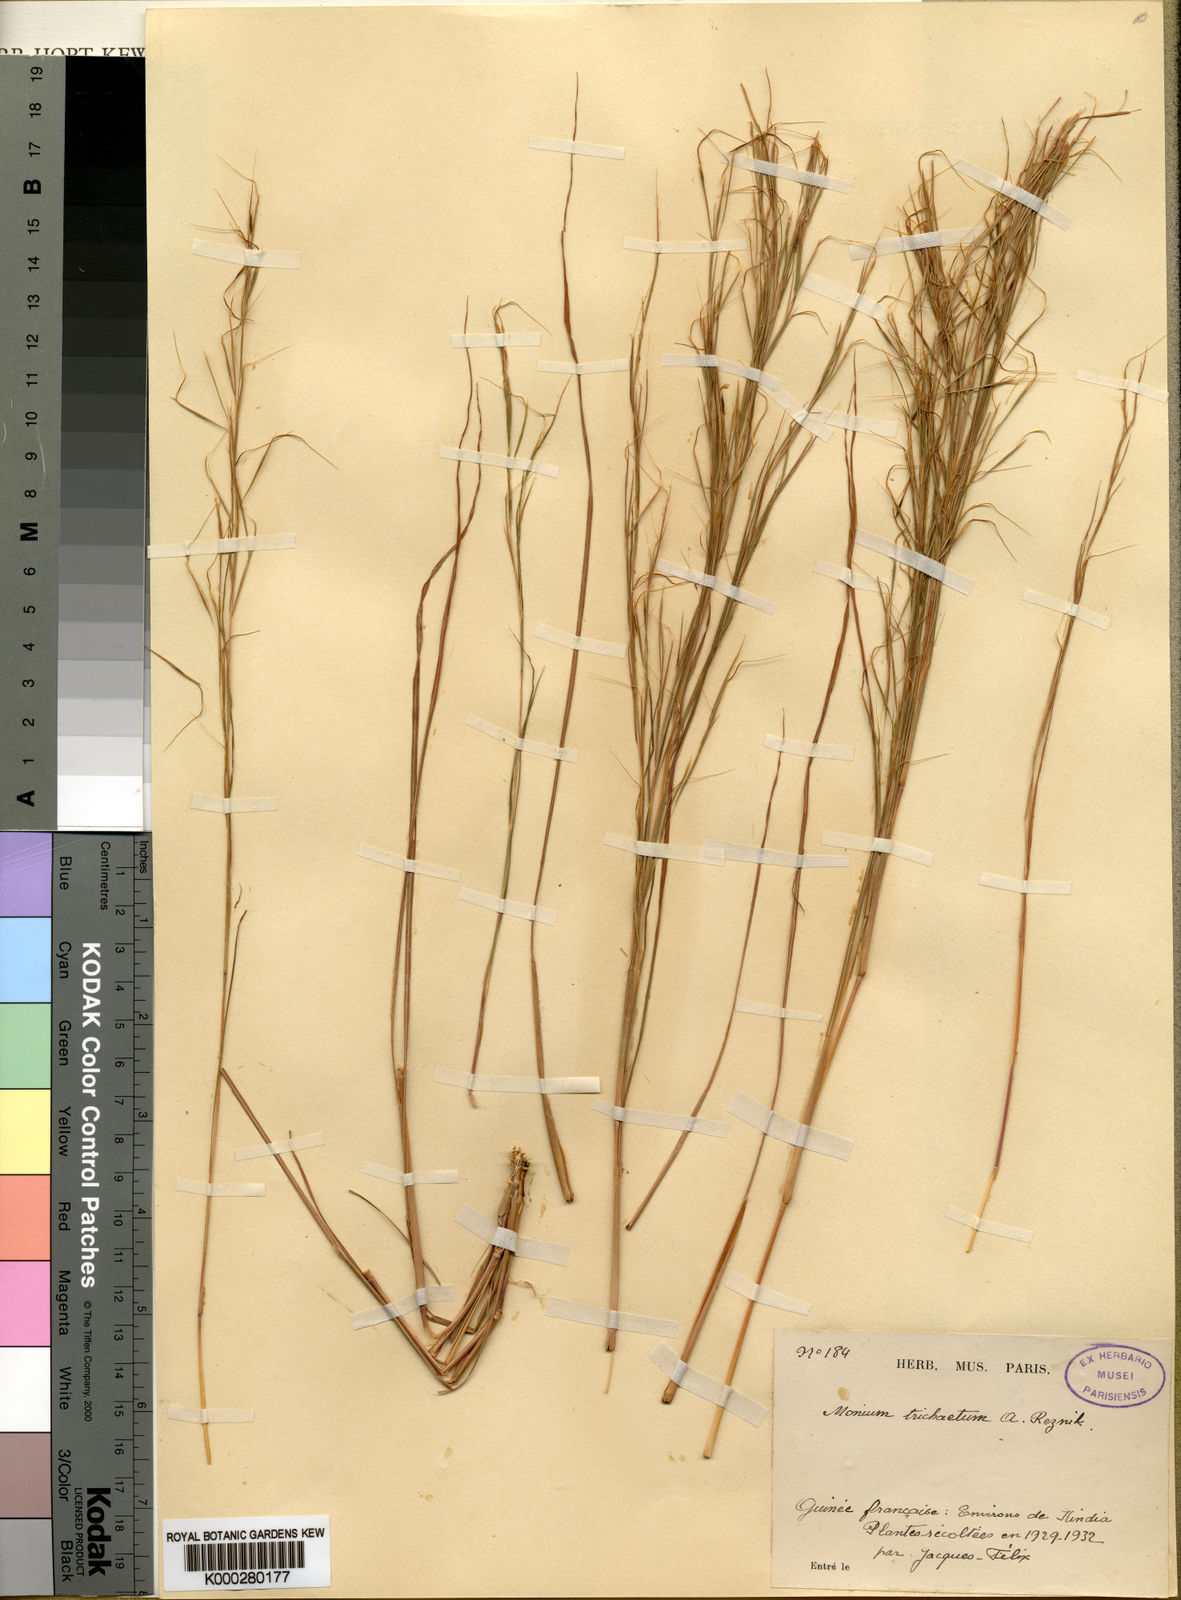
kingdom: Plantae
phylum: Tracheophyta
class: Liliopsida
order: Poales
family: Poaceae
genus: Anadelphia
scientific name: Anadelphia trichaeta
